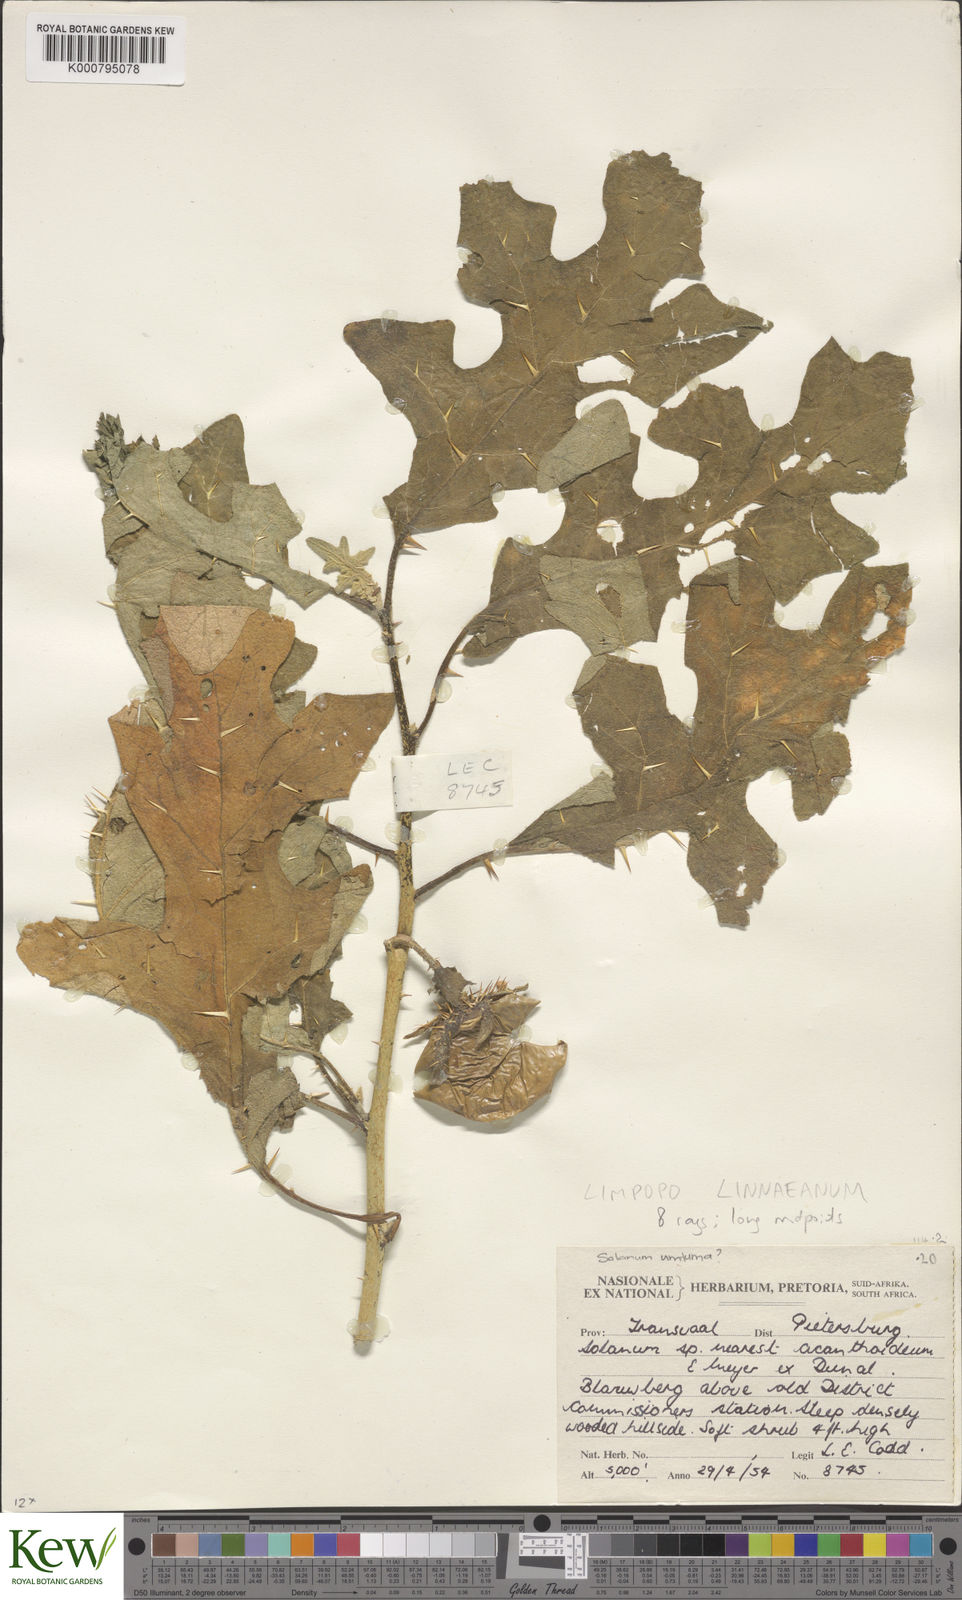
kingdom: Plantae
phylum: Tracheophyta
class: Magnoliopsida
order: Solanales
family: Solanaceae
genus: Solanum
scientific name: Solanum umtuma
